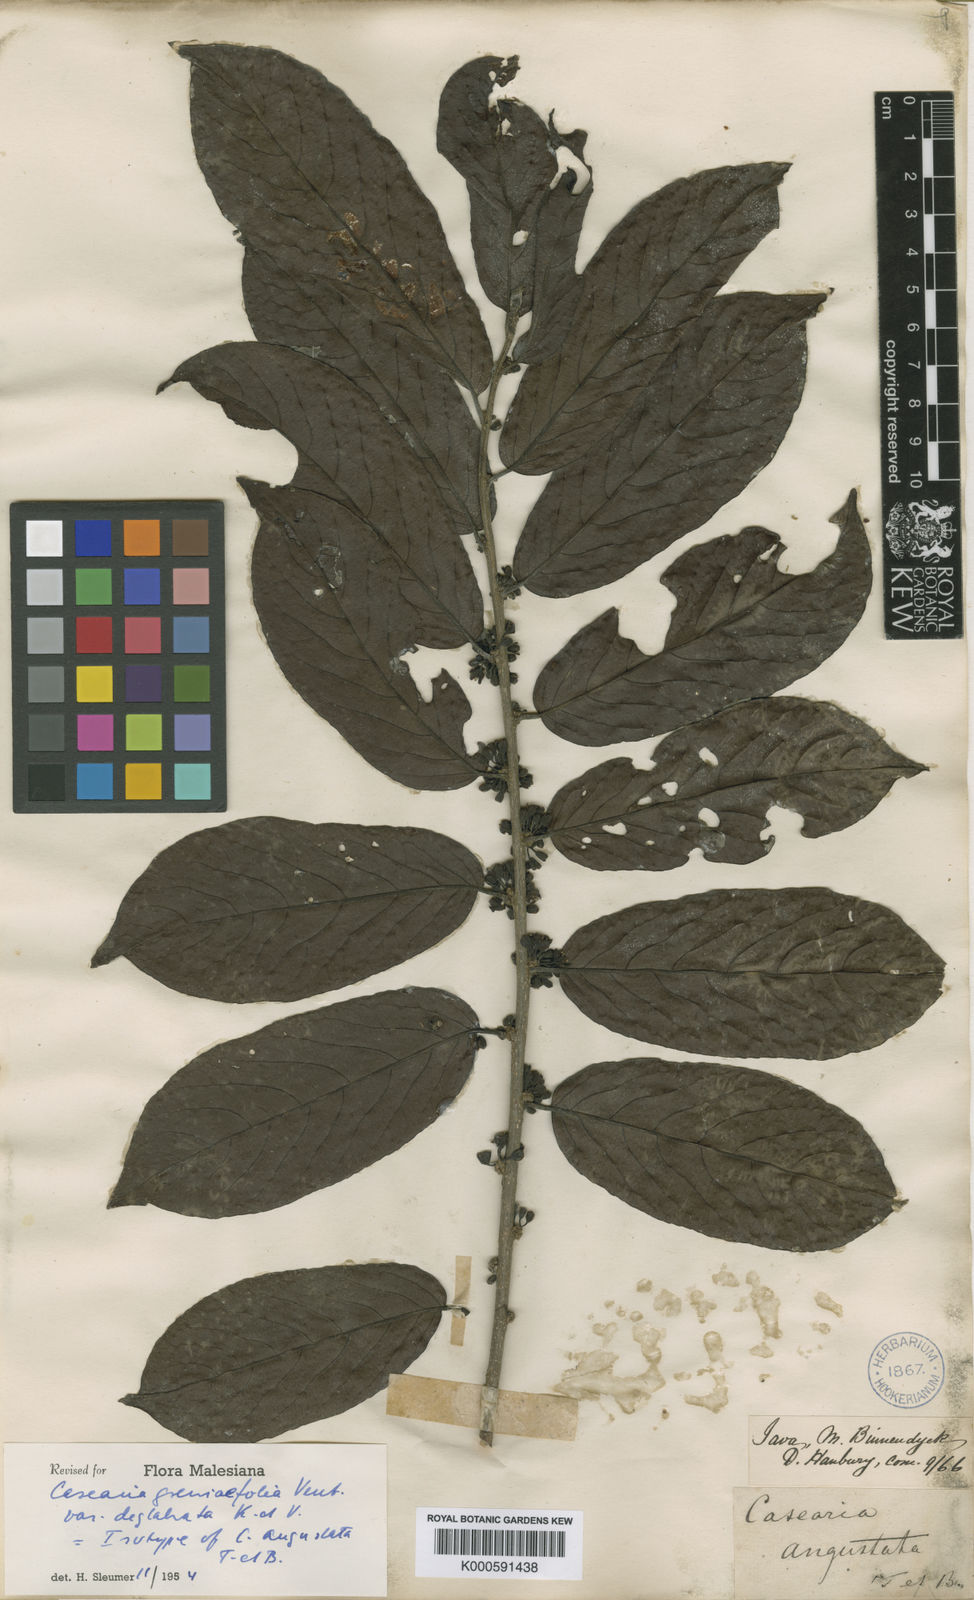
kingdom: Plantae
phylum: Tracheophyta
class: Magnoliopsida
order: Malpighiales
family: Salicaceae
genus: Casearia
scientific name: Casearia grewiifolia
